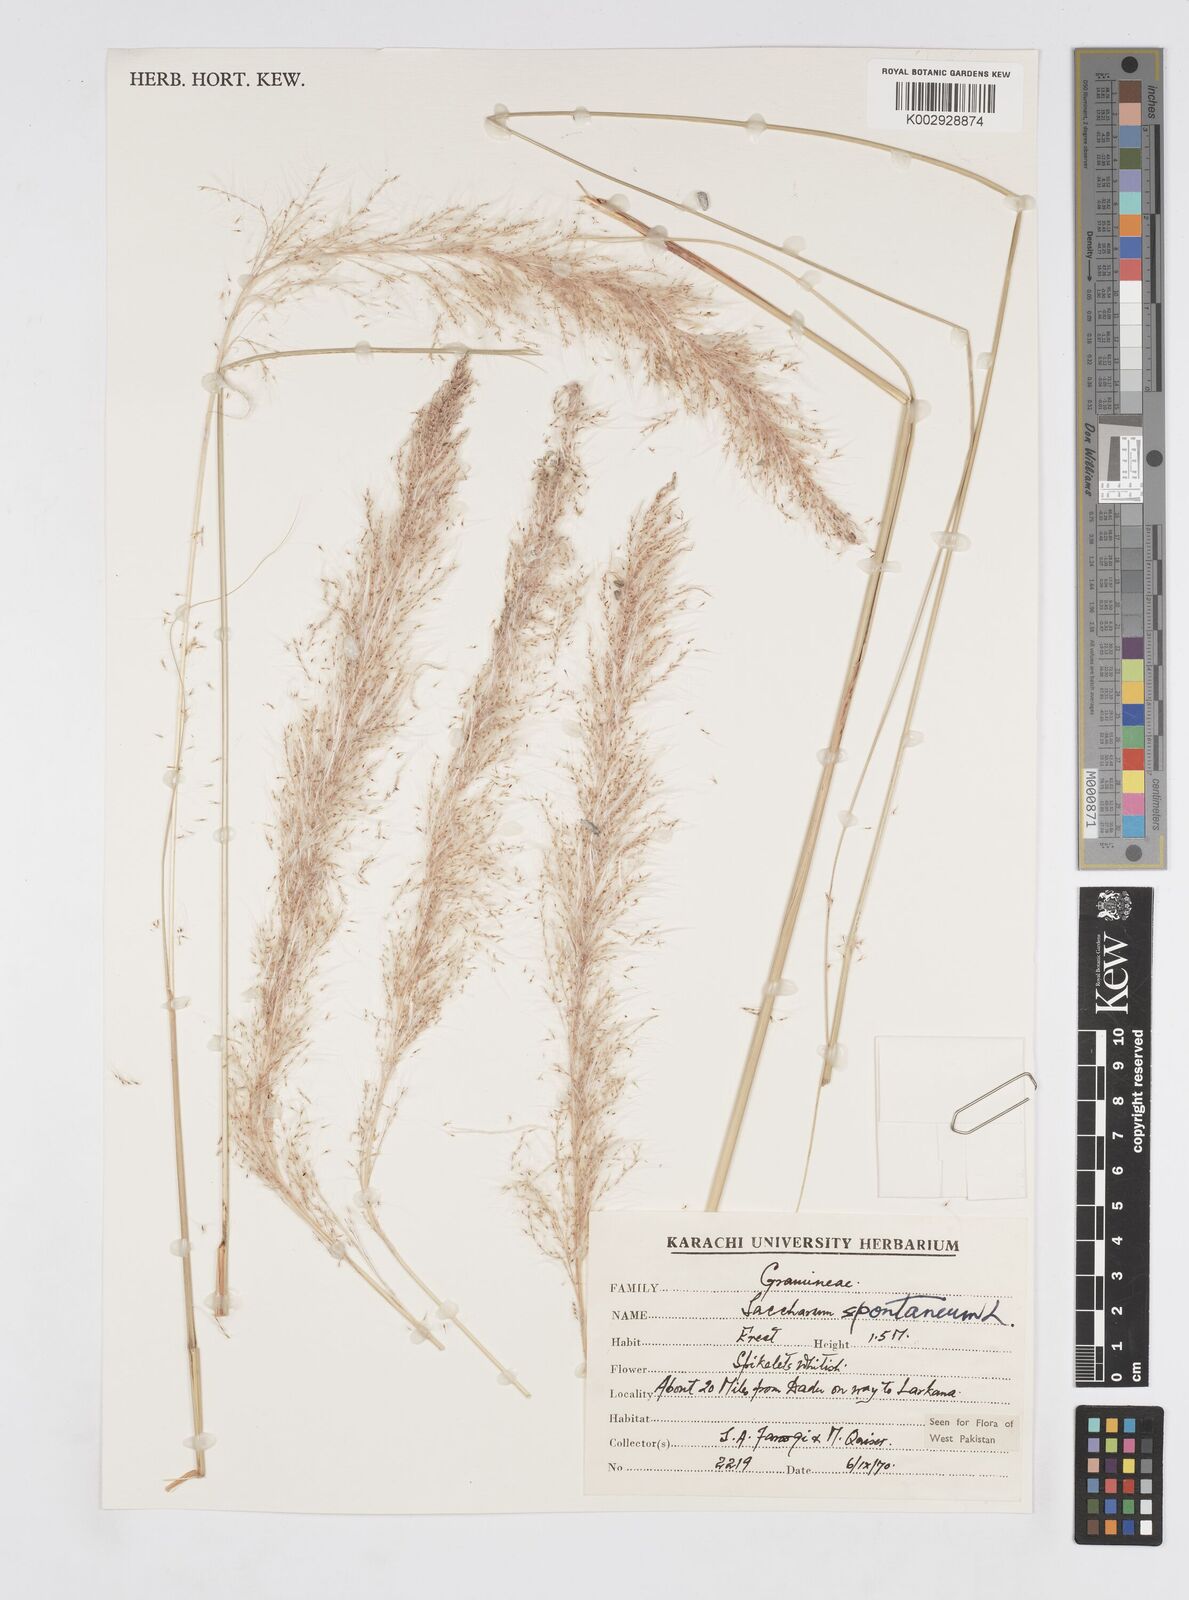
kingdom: Plantae
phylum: Tracheophyta
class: Liliopsida
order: Poales
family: Poaceae
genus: Saccharum
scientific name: Saccharum spontaneum
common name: Wild sugarcane
